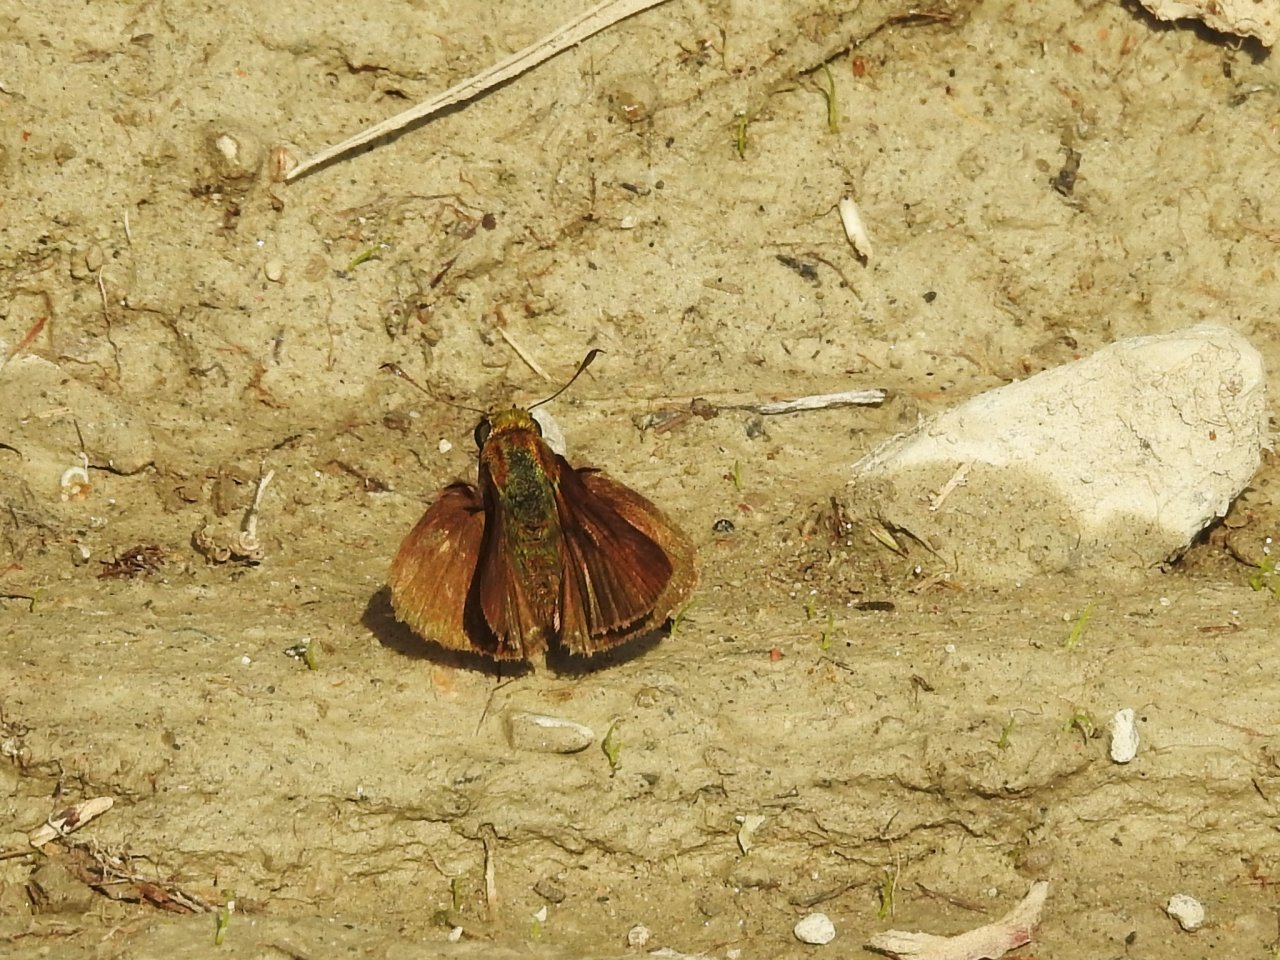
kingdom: Animalia
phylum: Arthropoda
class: Insecta
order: Lepidoptera
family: Hesperiidae
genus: Euphyes
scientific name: Euphyes vestris
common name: Dun Skipper
